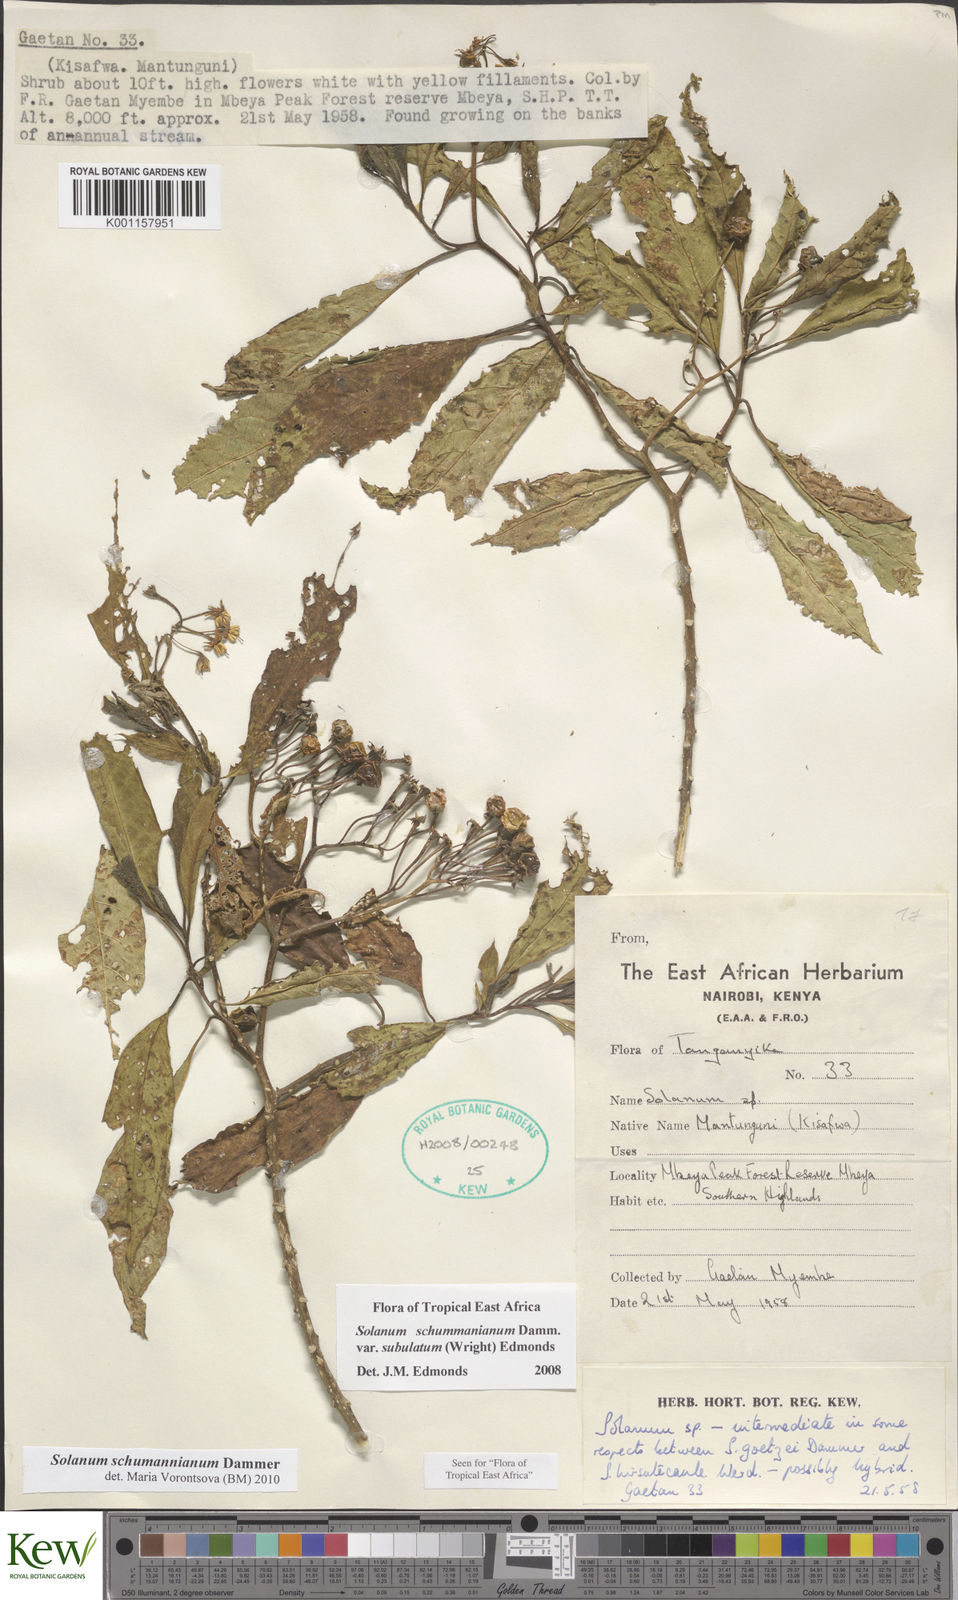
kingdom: Plantae
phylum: Tracheophyta
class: Magnoliopsida
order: Solanales
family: Solanaceae
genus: Solanum
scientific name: Solanum
